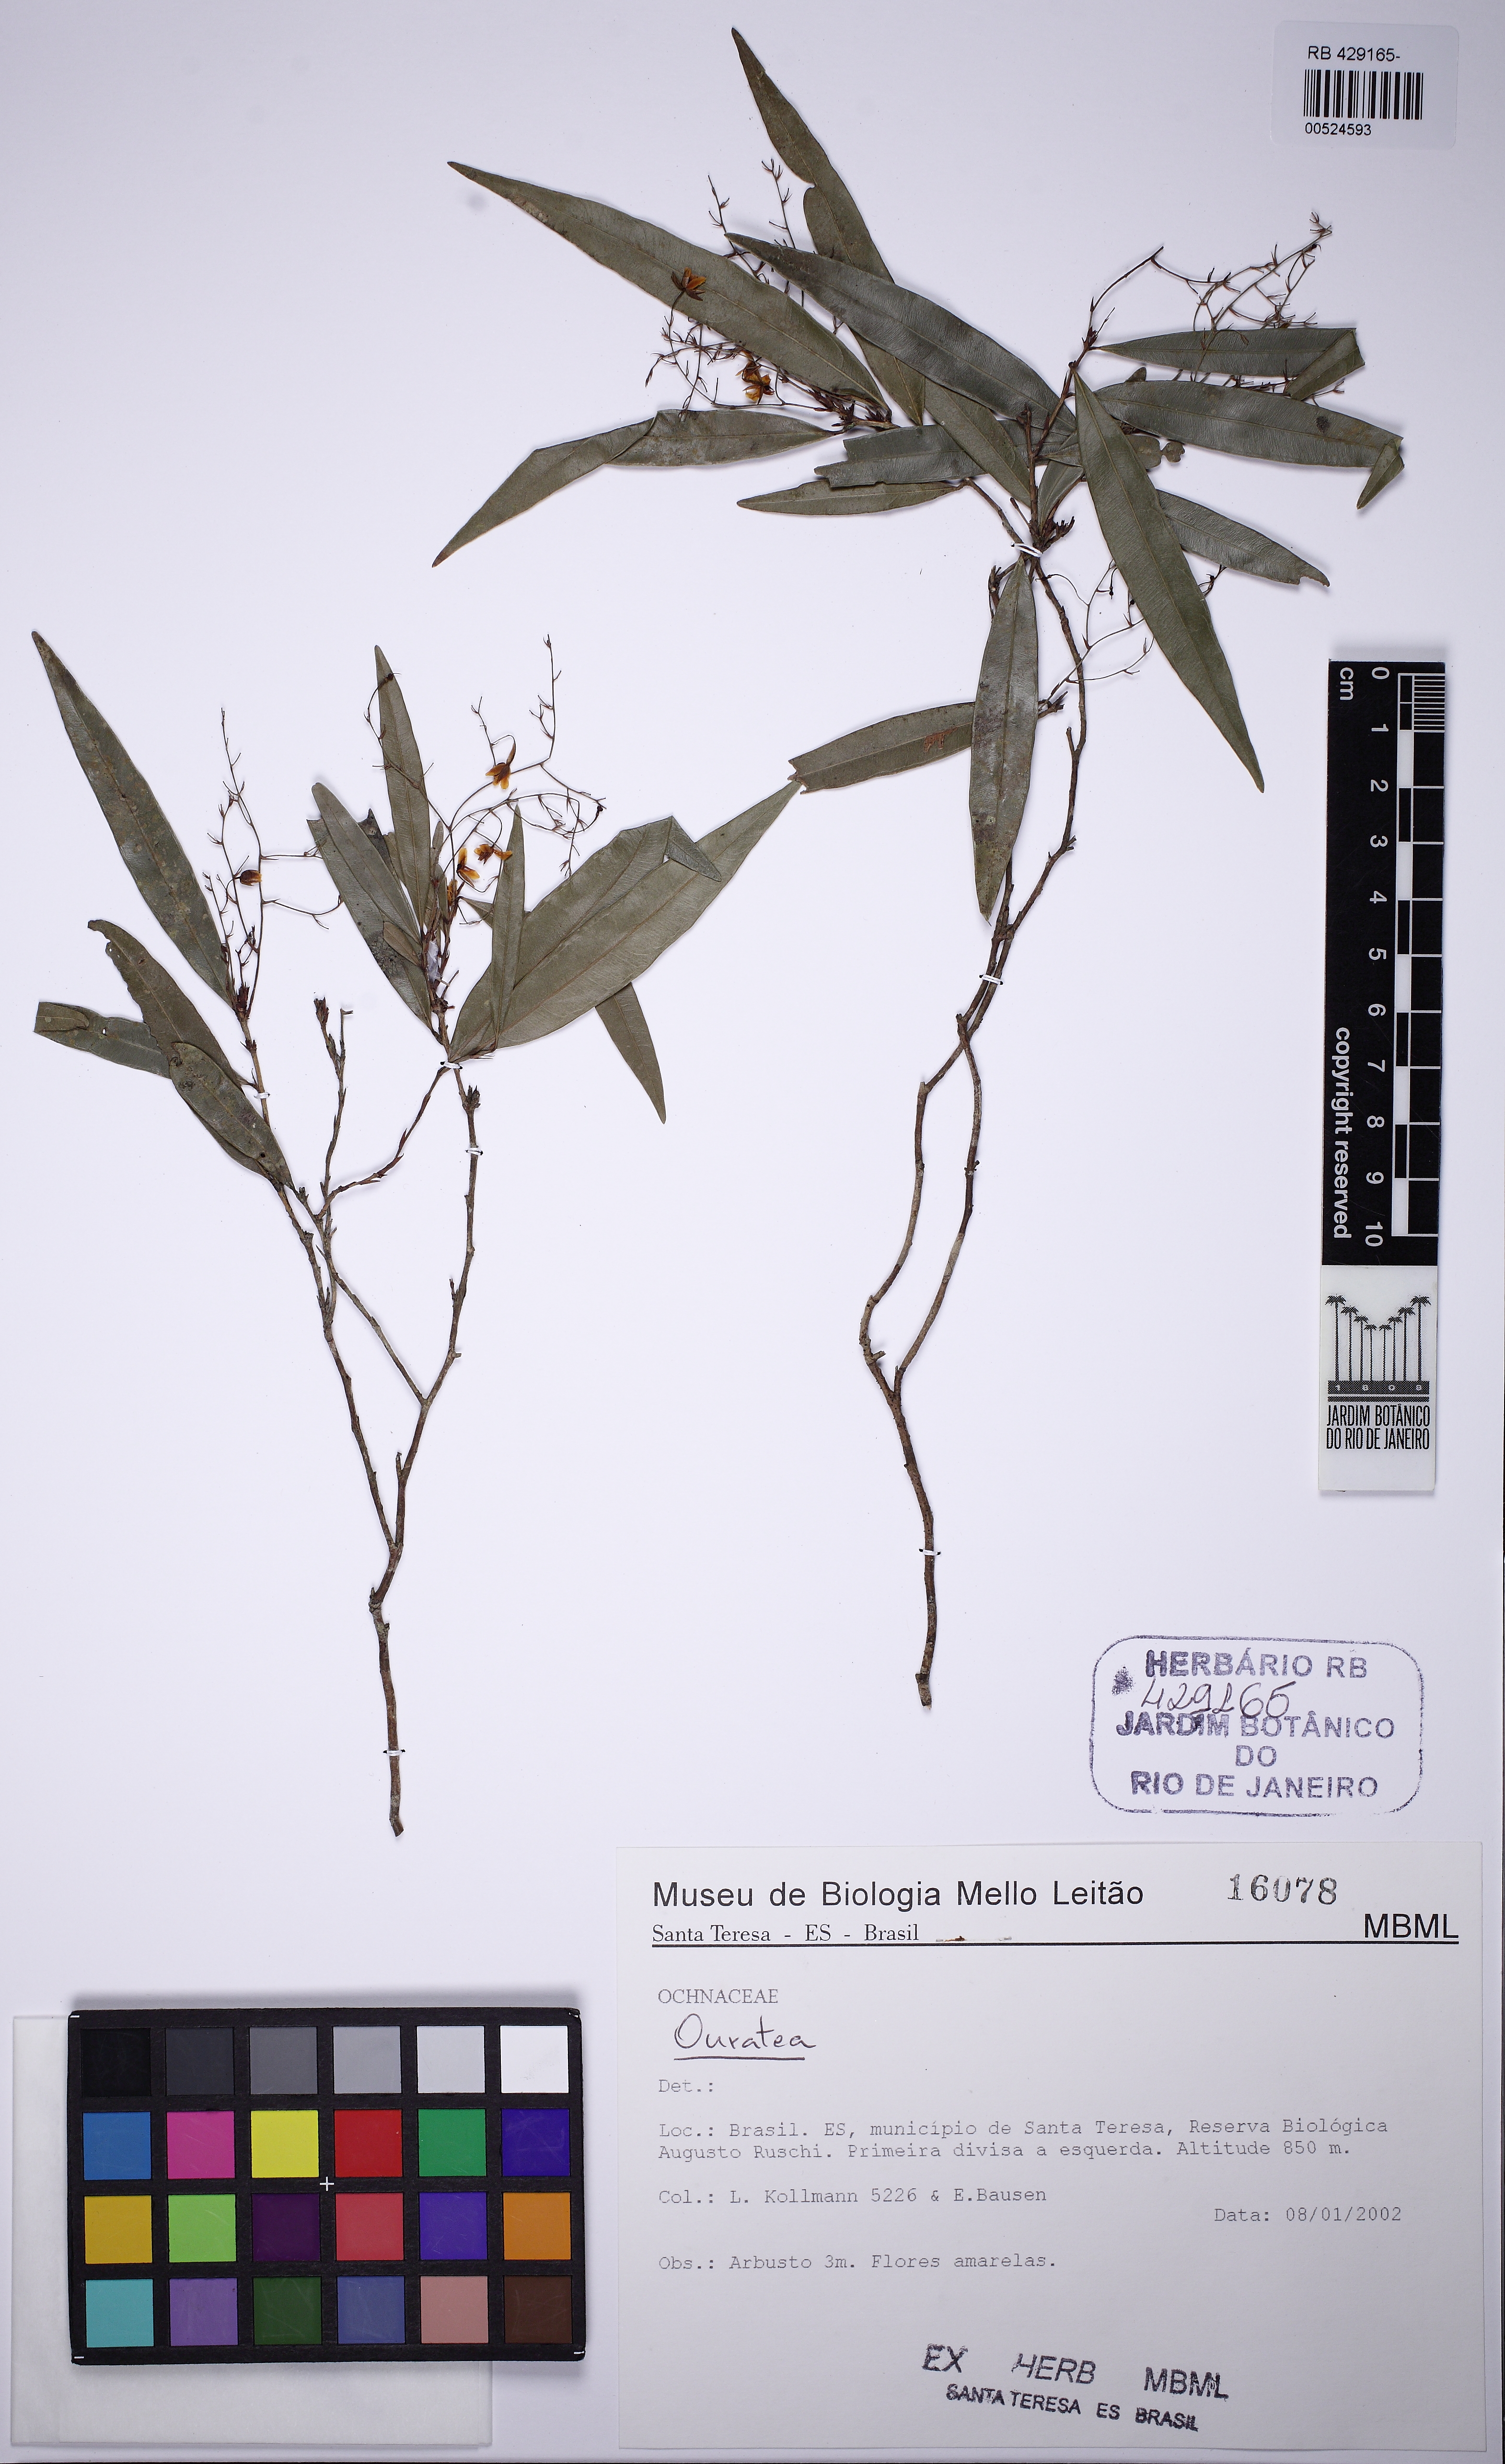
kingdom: Plantae
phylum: Tracheophyta
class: Magnoliopsida
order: Malpighiales
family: Ochnaceae
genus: Ouratea
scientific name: Ouratea
